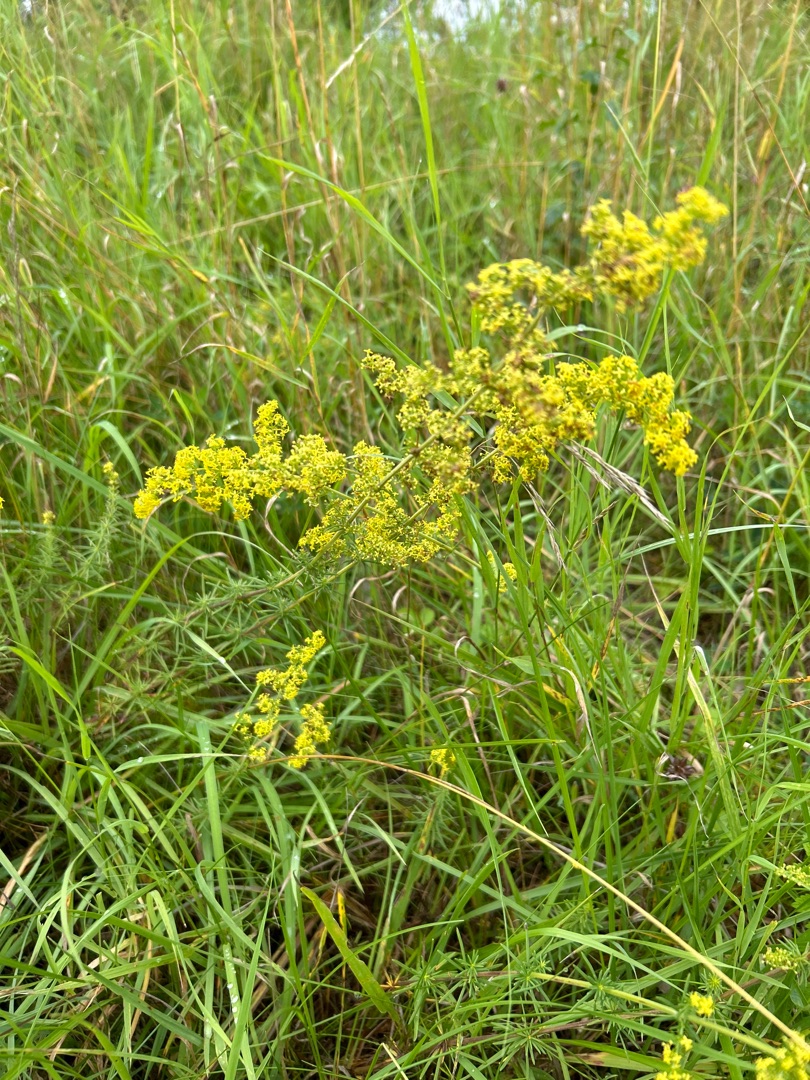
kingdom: Plantae
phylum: Tracheophyta
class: Magnoliopsida
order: Gentianales
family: Rubiaceae
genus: Galium
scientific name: Galium verum
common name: Gul snerre
